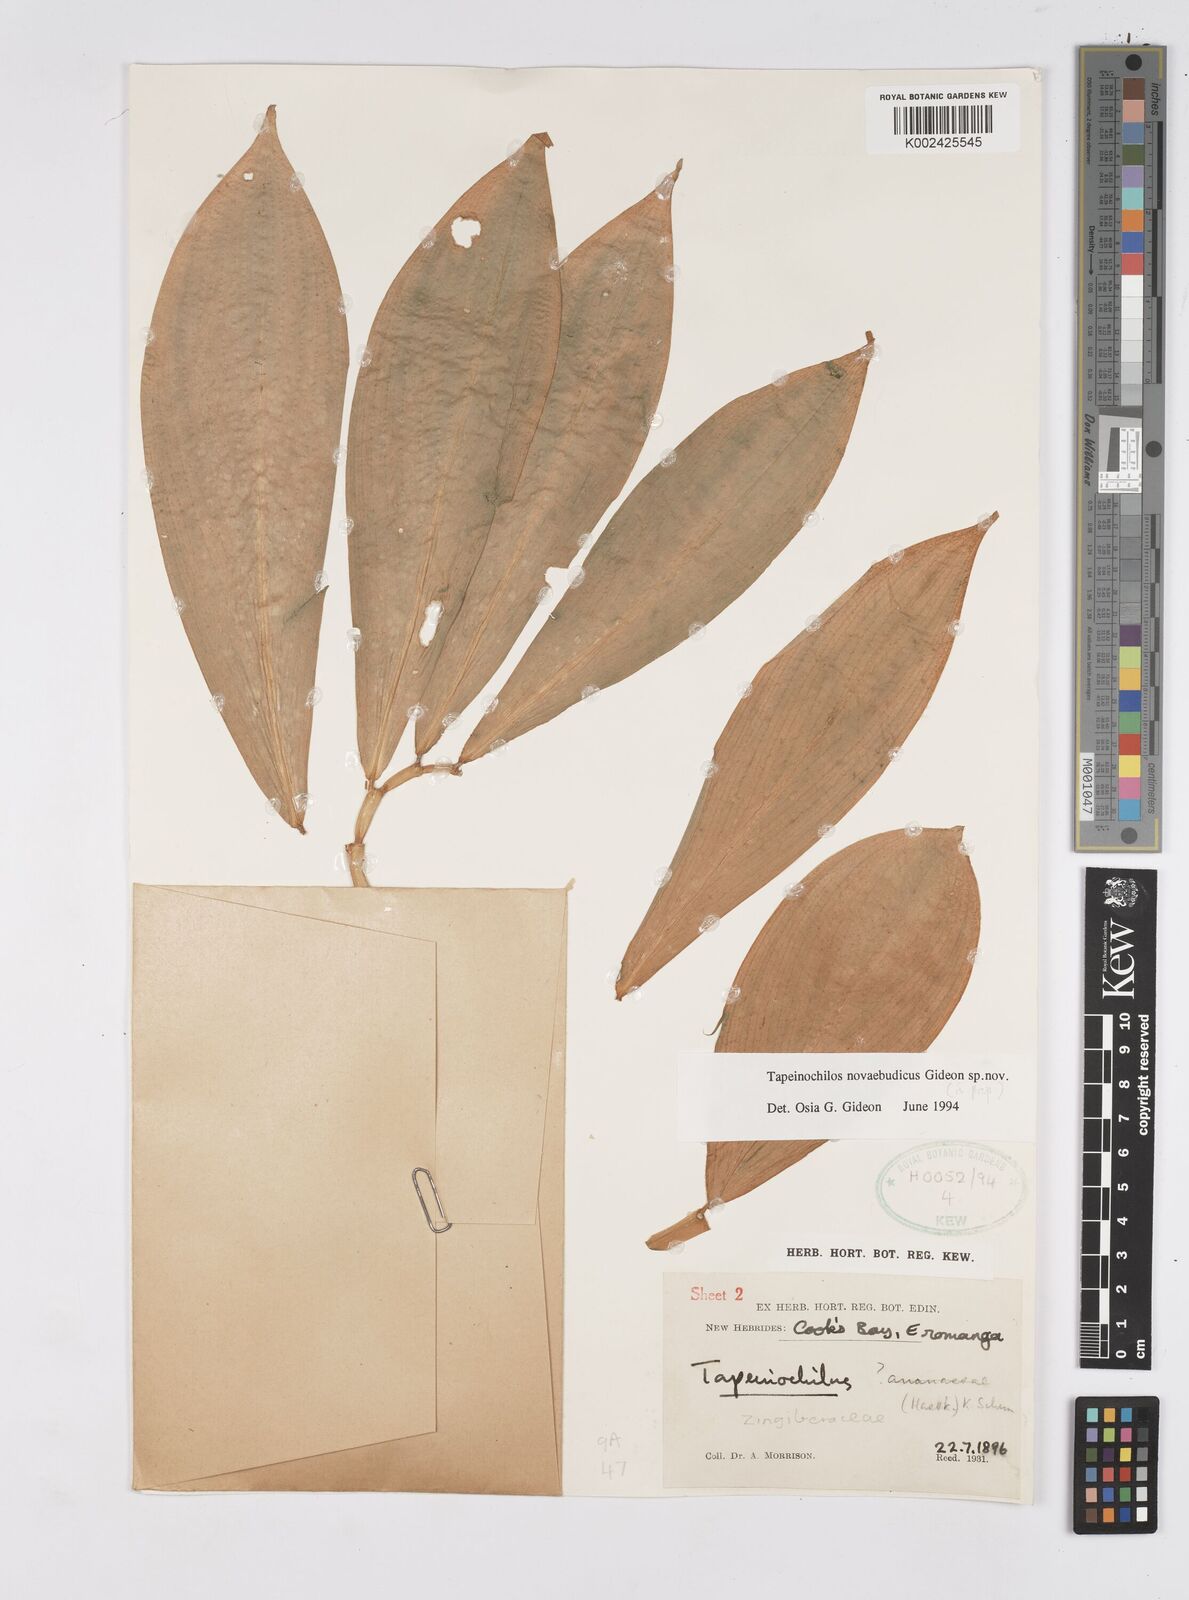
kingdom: Plantae
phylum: Tracheophyta
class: Liliopsida
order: Zingiberales
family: Costaceae
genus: Tapeinochilos
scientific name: Tapeinochilos
